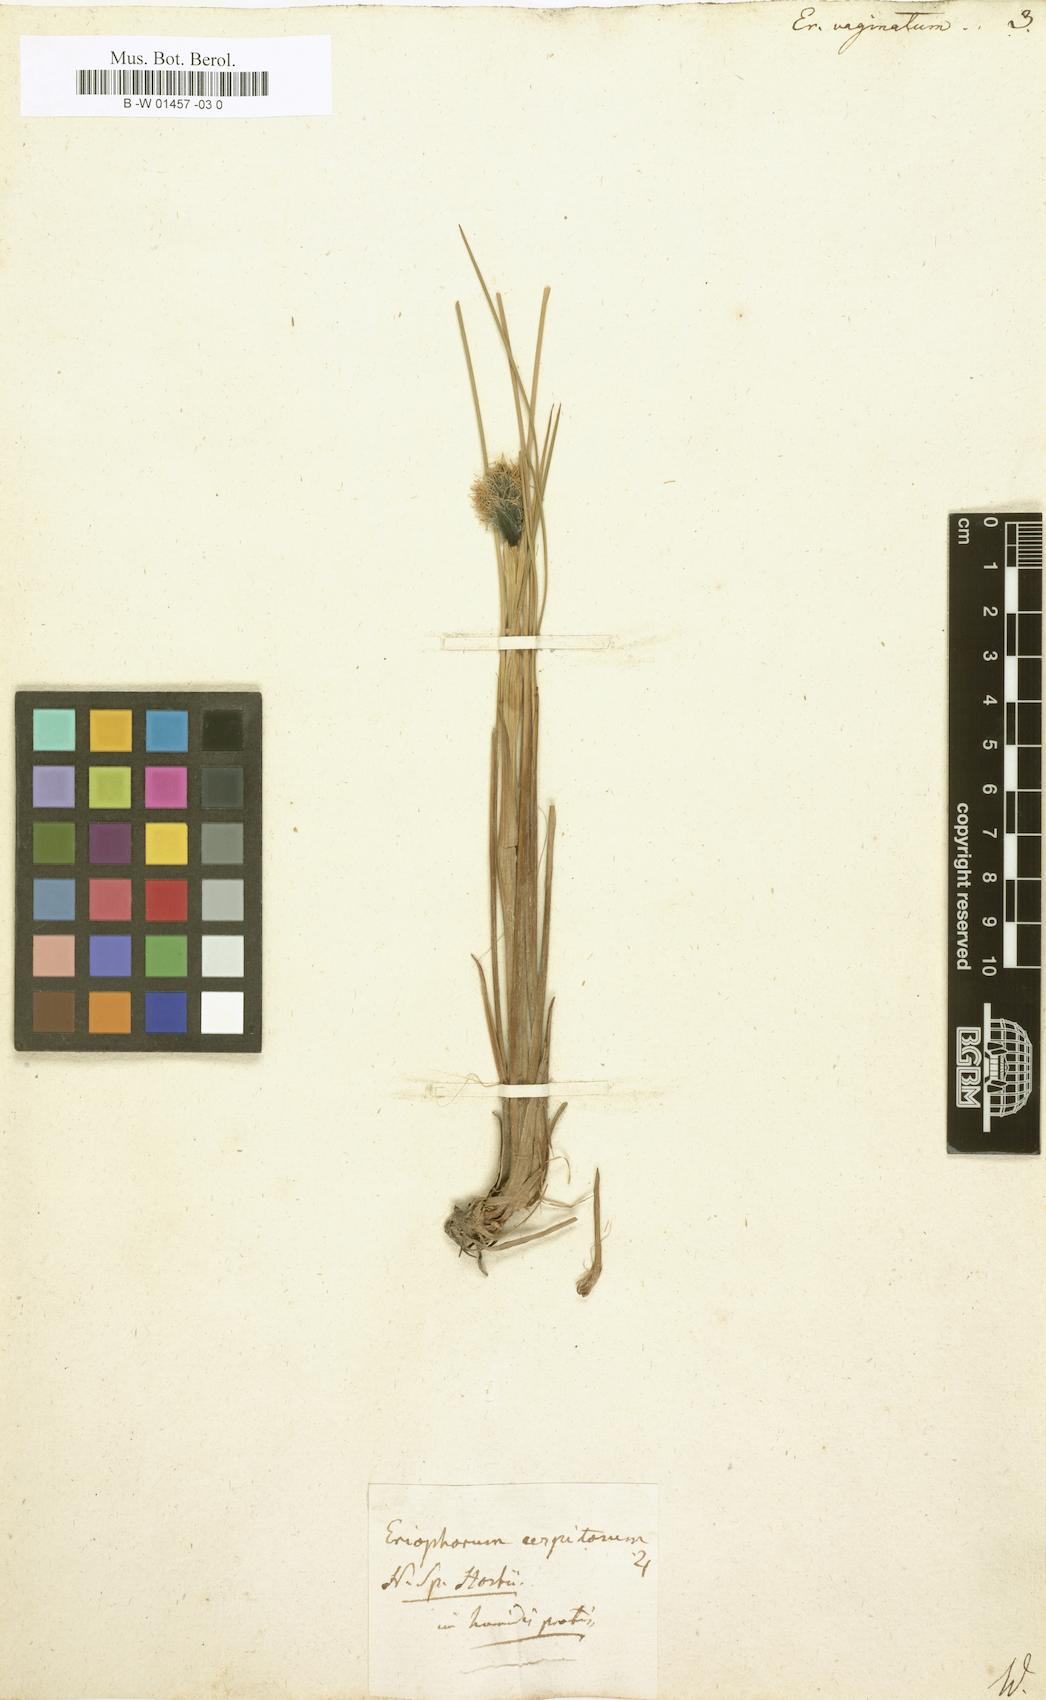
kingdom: Plantae
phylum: Tracheophyta
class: Liliopsida
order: Poales
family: Cyperaceae
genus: Eriophorum
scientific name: Eriophorum vaginatum
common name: Hare's-tail cottongrass
